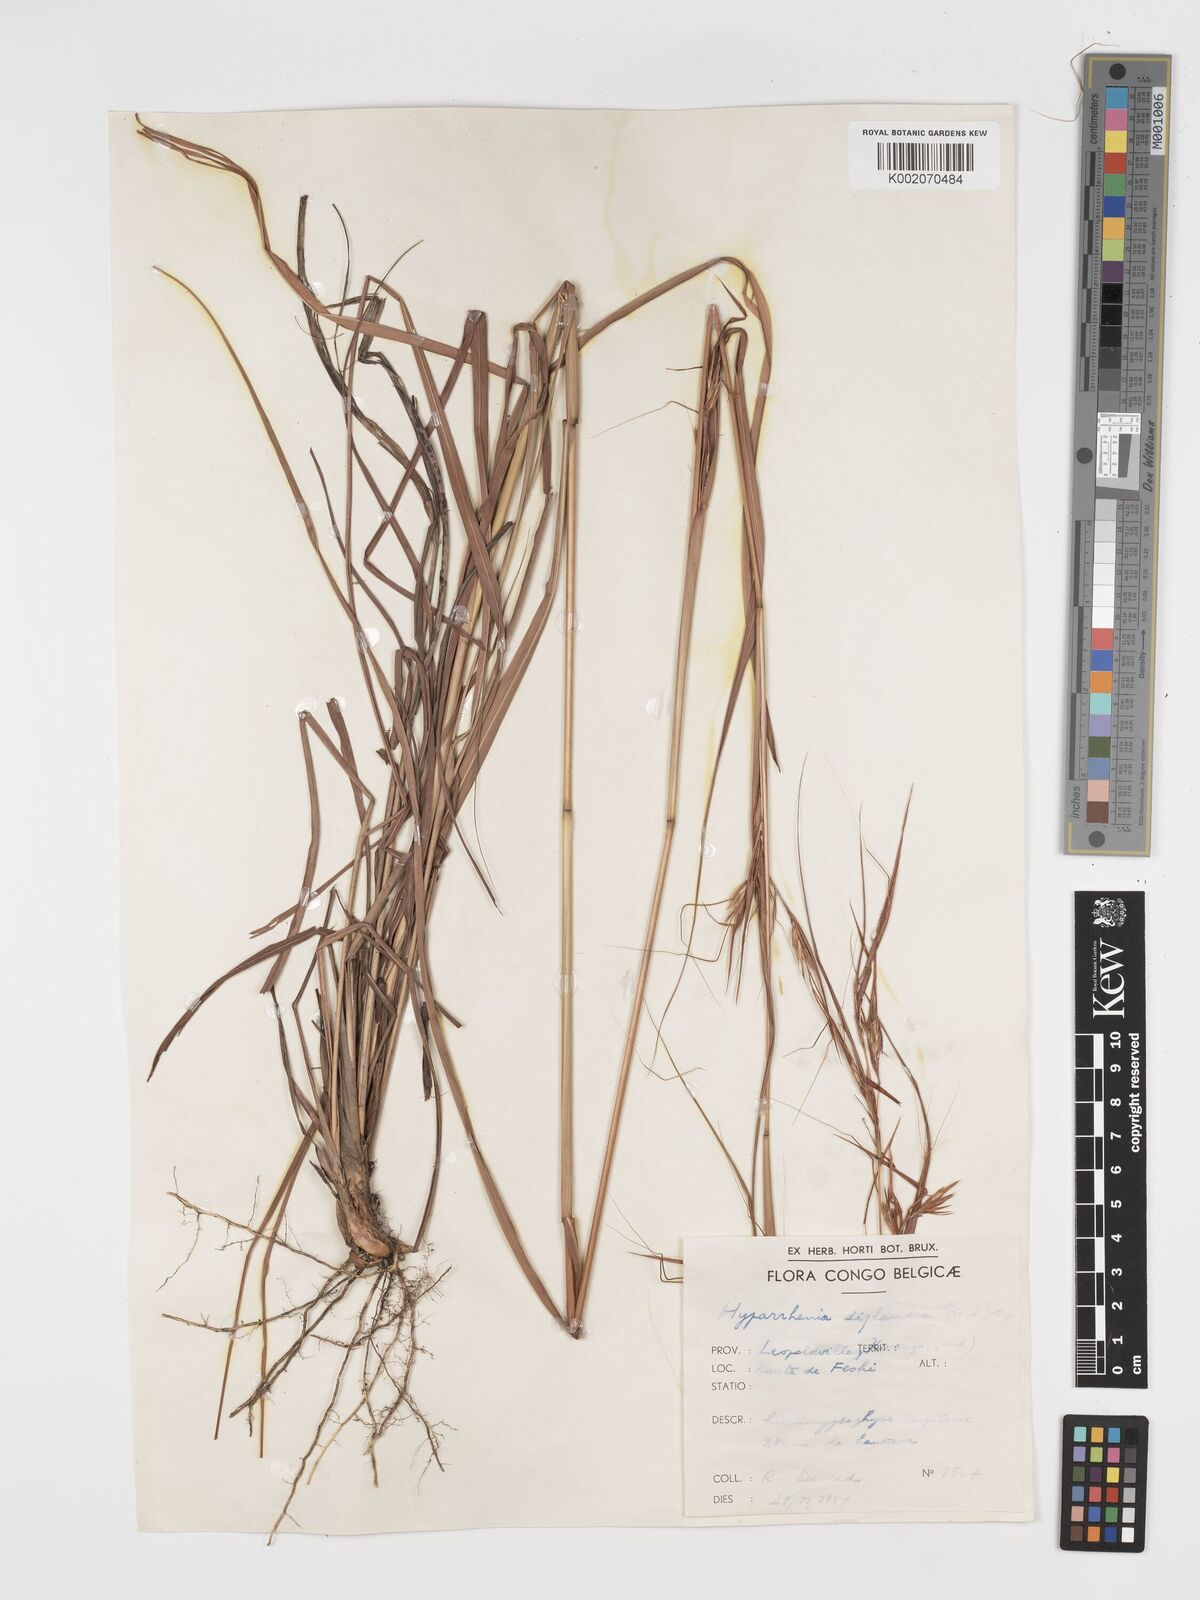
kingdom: Plantae
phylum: Tracheophyta
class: Liliopsida
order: Poales
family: Poaceae
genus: Hyparrhenia
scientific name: Hyparrhenia diplandra
